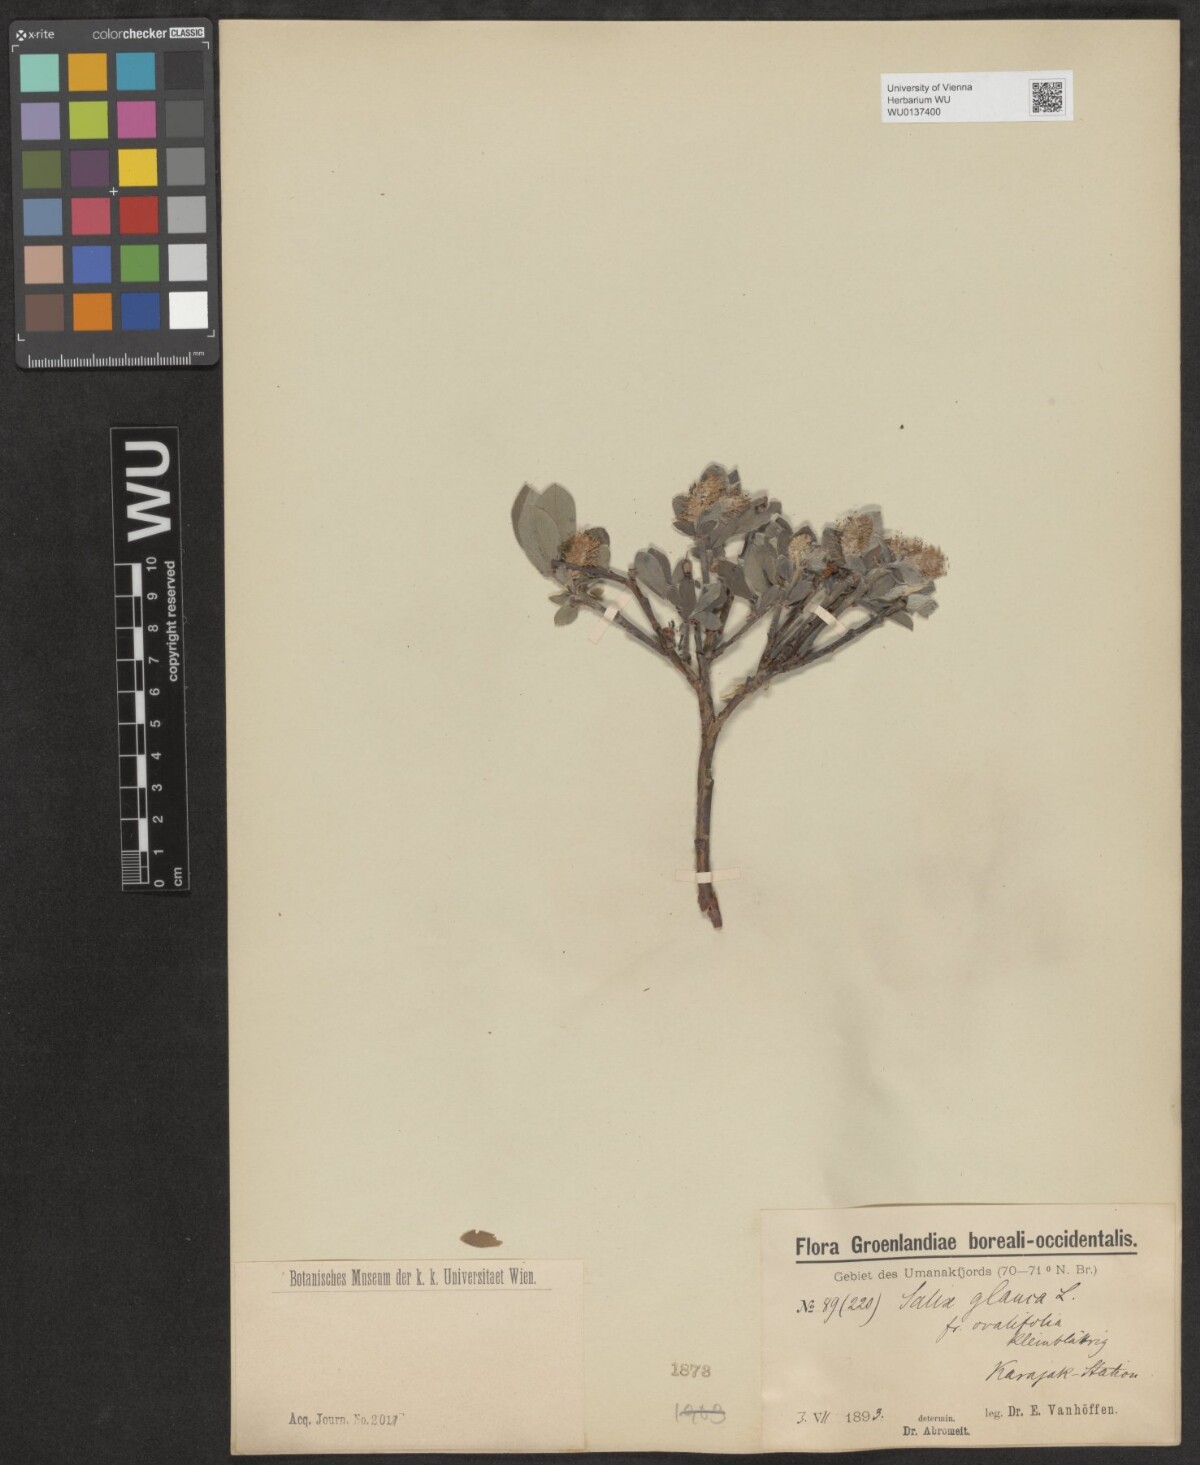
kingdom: Plantae
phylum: Tracheophyta
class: Magnoliopsida
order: Malpighiales
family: Salicaceae
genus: Salix
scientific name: Salix glauca
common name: Glaucous willow
